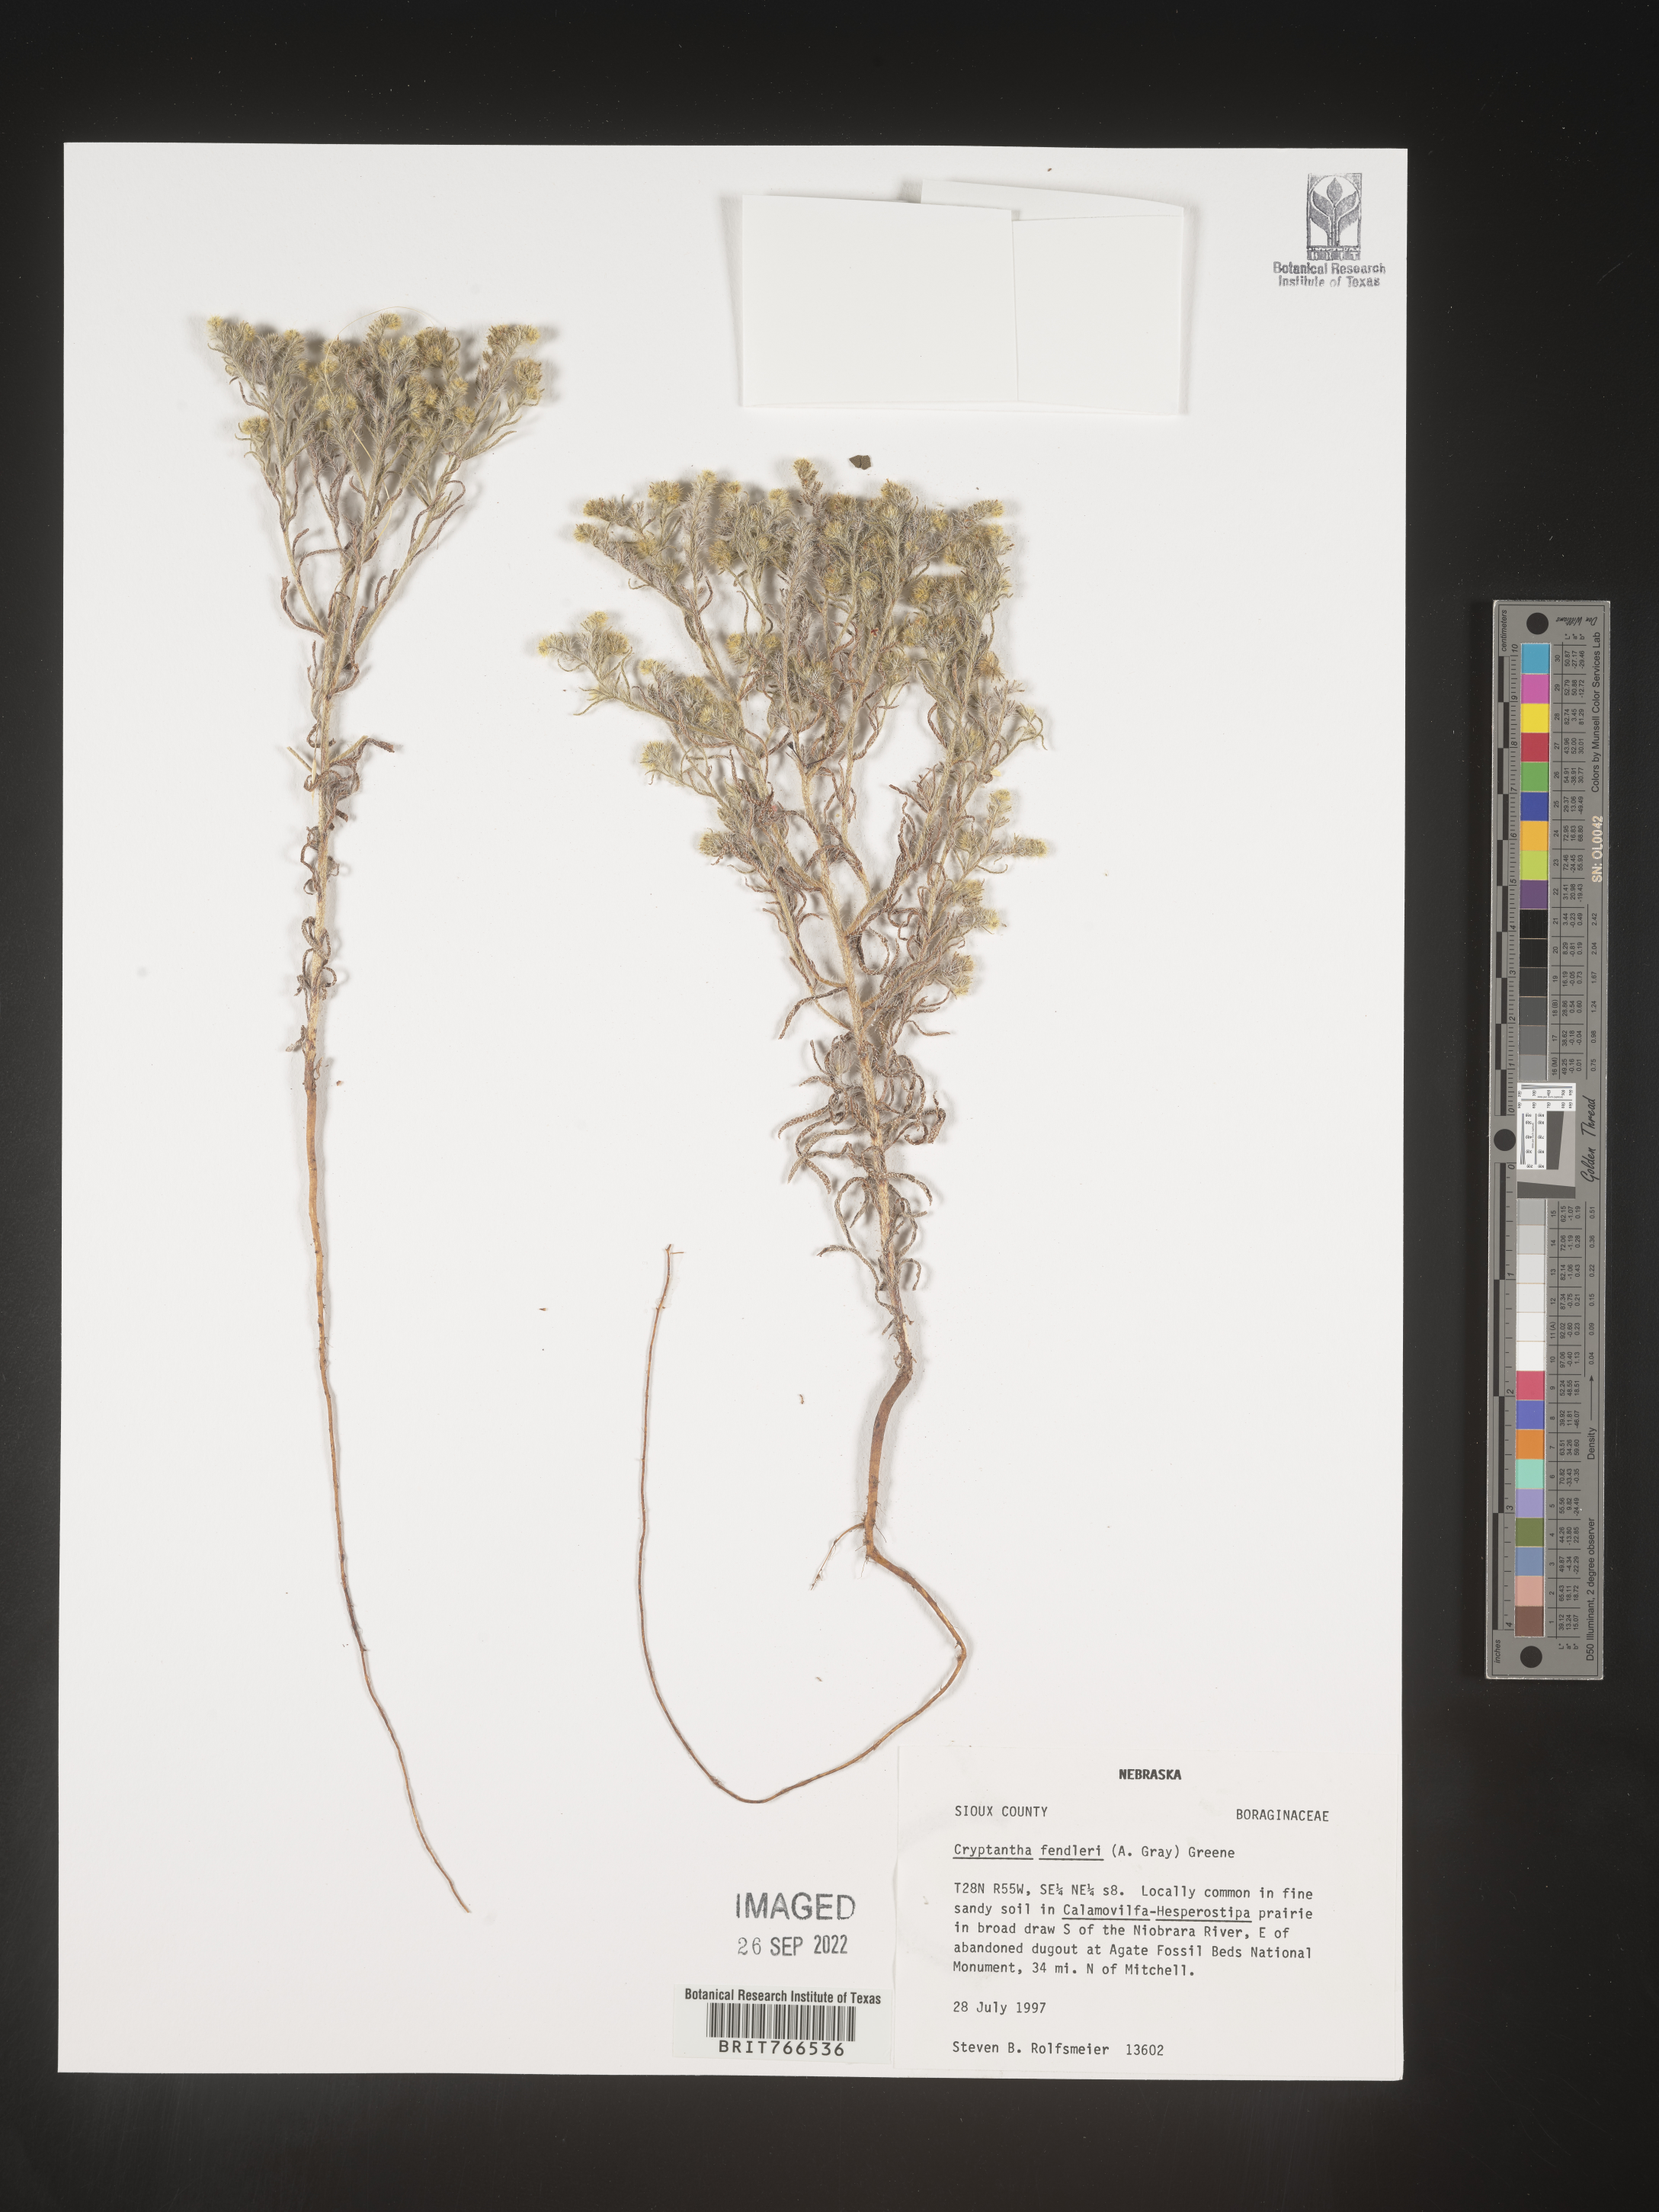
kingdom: Plantae
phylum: Tracheophyta
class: Magnoliopsida
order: Boraginales
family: Boraginaceae
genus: Cryptantha
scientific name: Cryptantha fendleri
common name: Sand-dune cryptantha
